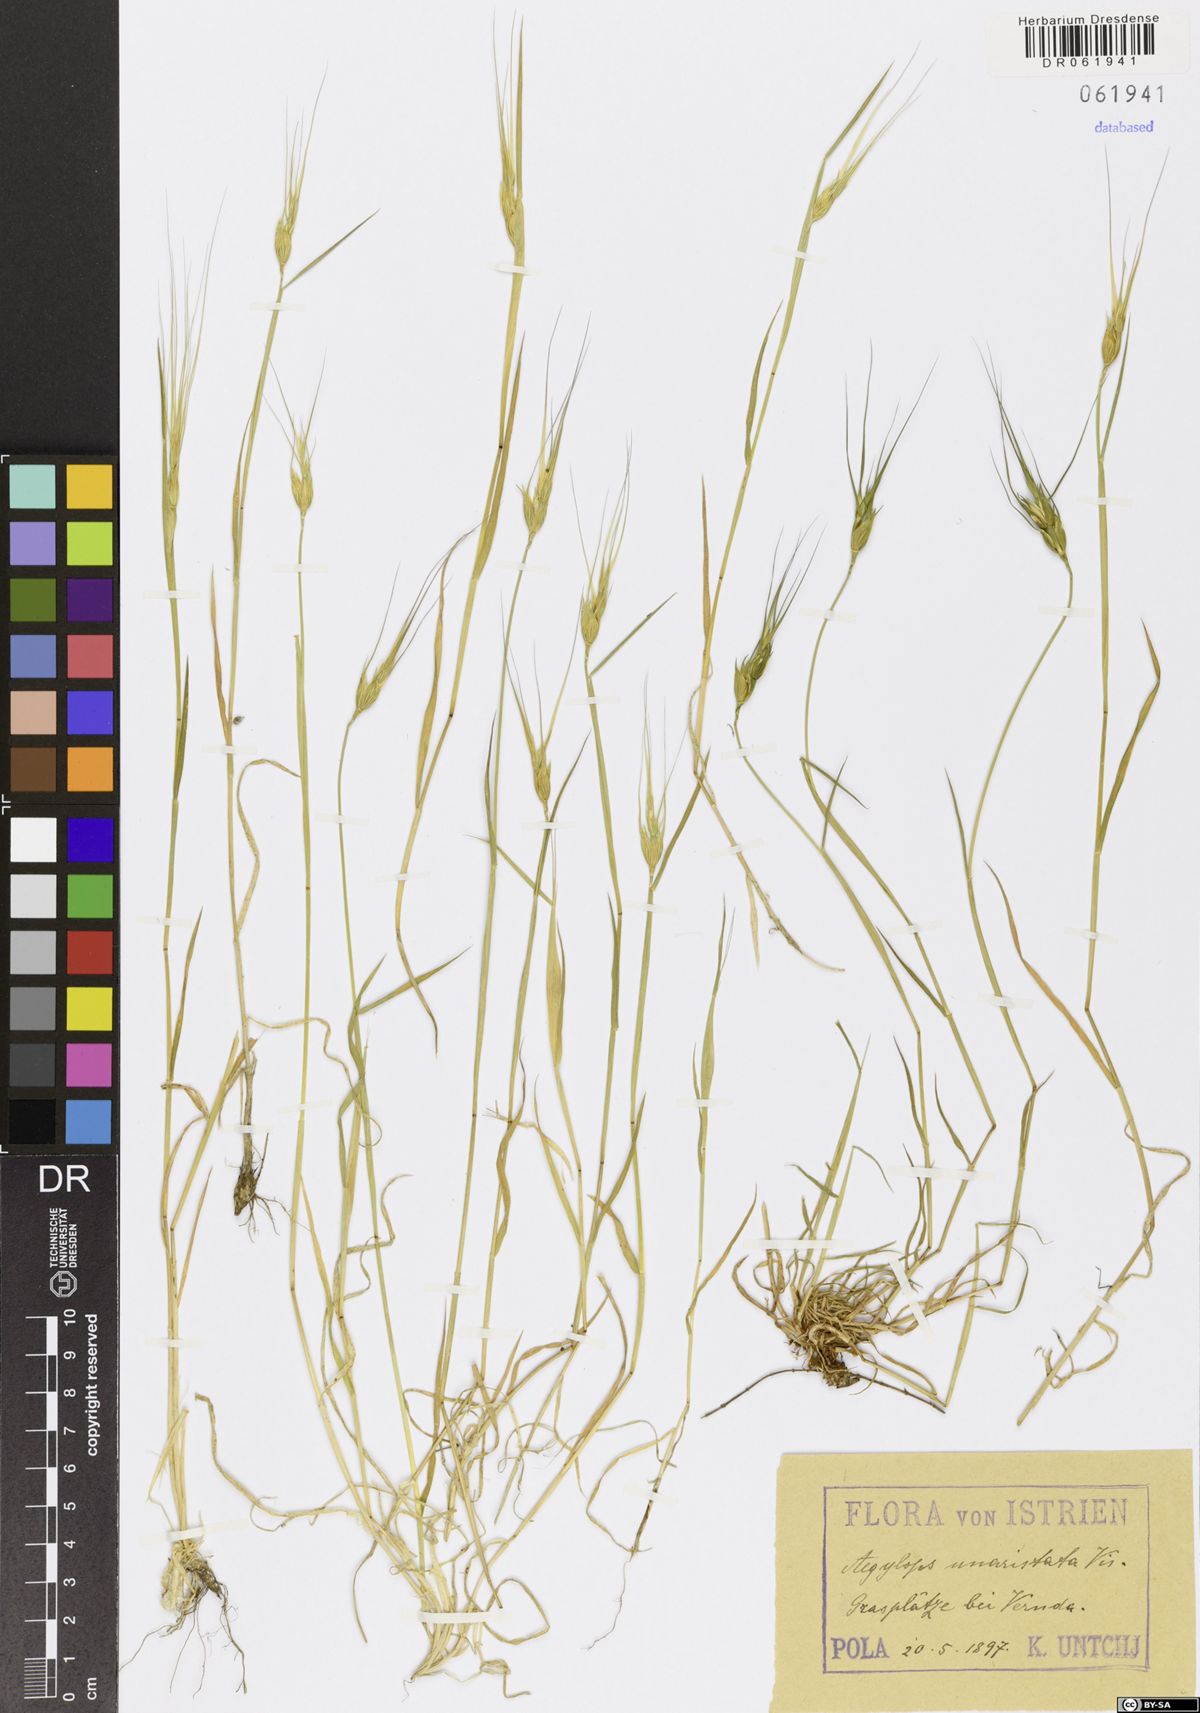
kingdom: Plantae
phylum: Tracheophyta
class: Liliopsida
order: Poales
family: Poaceae
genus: Aegilops
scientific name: Aegilops uniaristata
